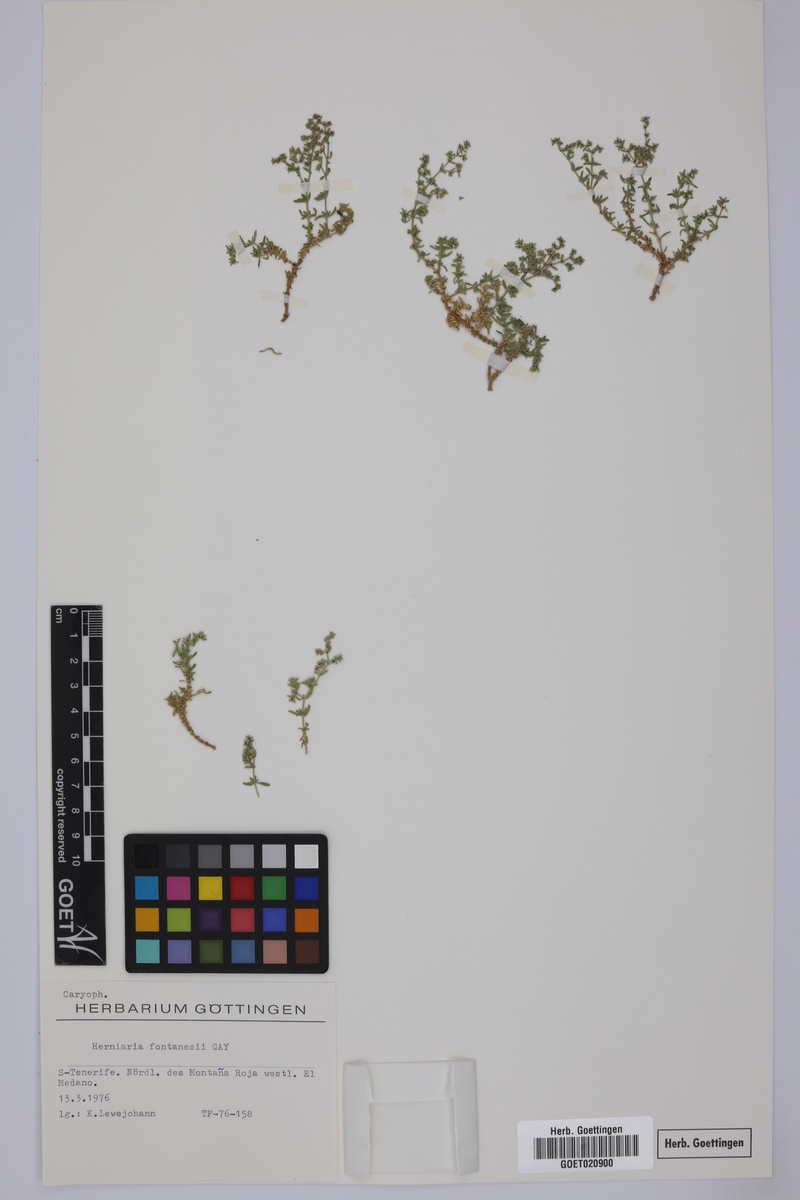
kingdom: Plantae
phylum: Tracheophyta
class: Magnoliopsida
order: Caryophyllales
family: Caryophyllaceae
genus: Herniaria
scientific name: Herniaria fontanesii
